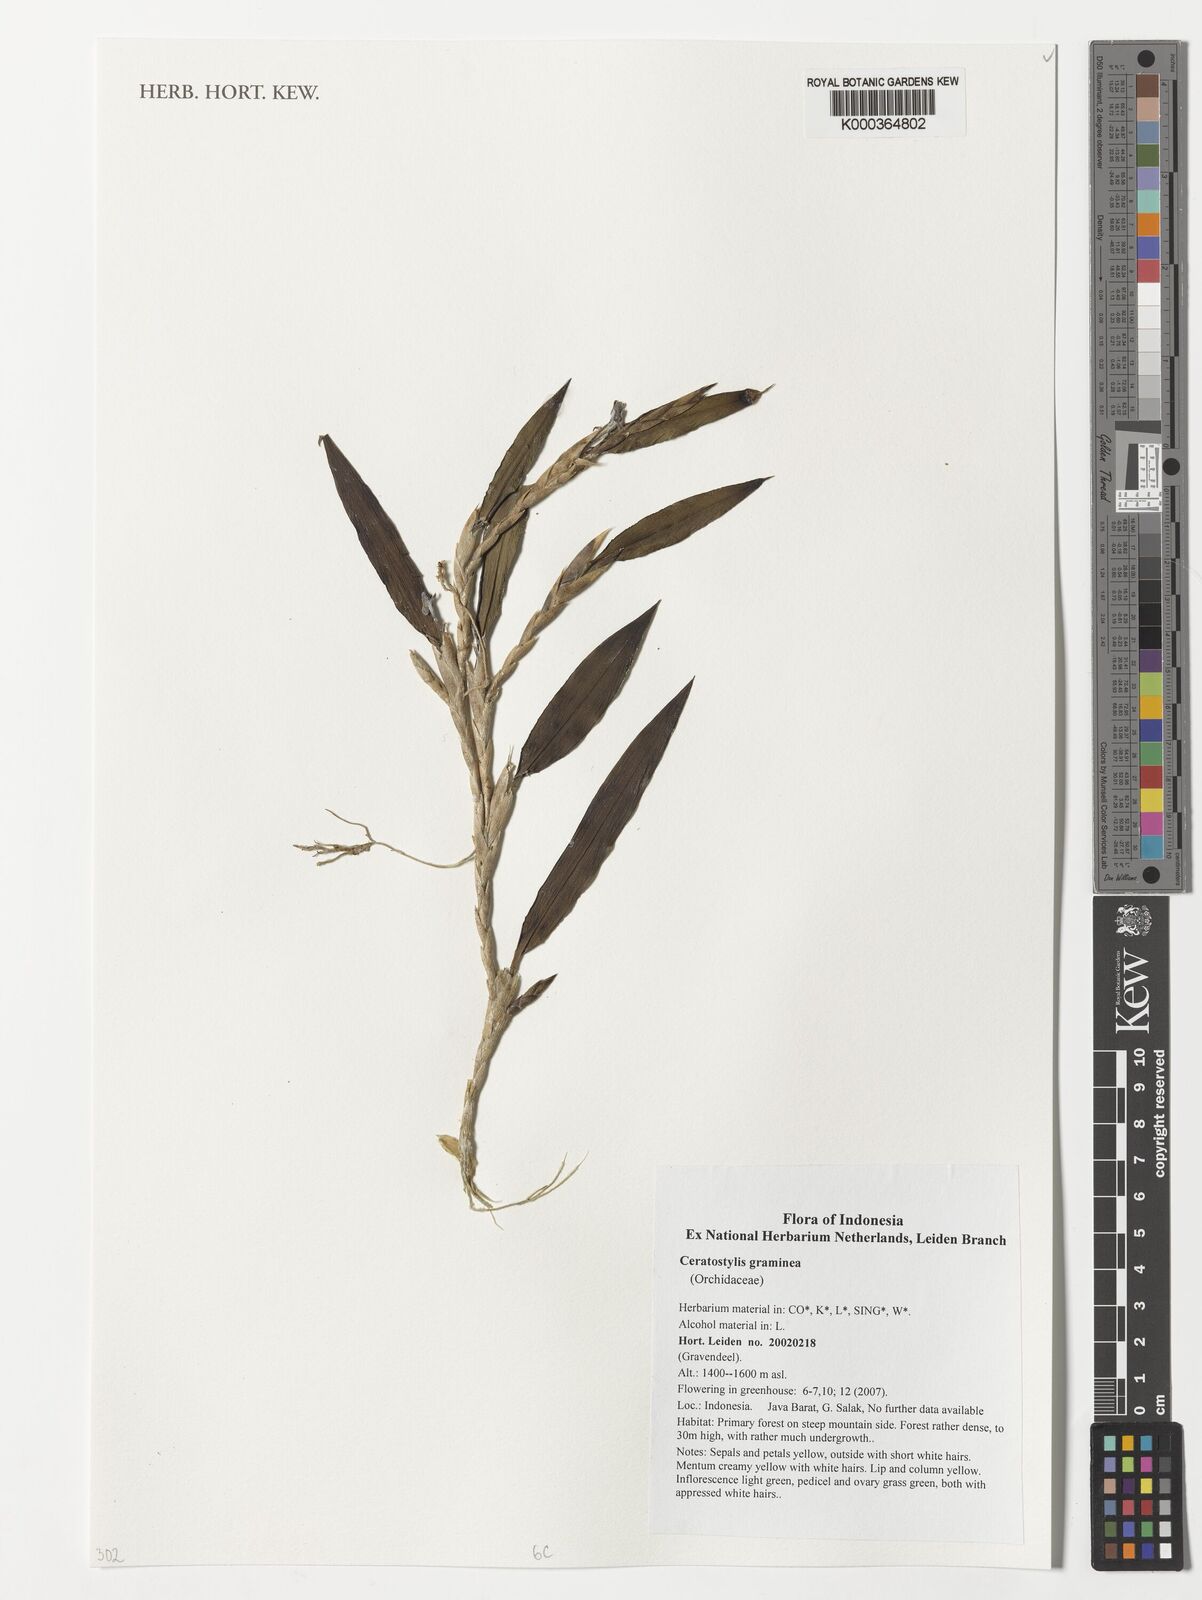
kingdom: Plantae
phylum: Tracheophyta
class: Liliopsida
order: Asparagales
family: Orchidaceae
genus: Ceratostylis
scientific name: Ceratostylis graminea
